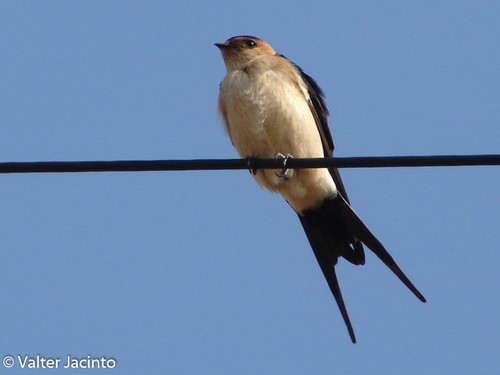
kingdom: Animalia
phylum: Chordata
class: Aves
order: Passeriformes
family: Hirundinidae
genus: Cecropis
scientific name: Cecropis daurica
